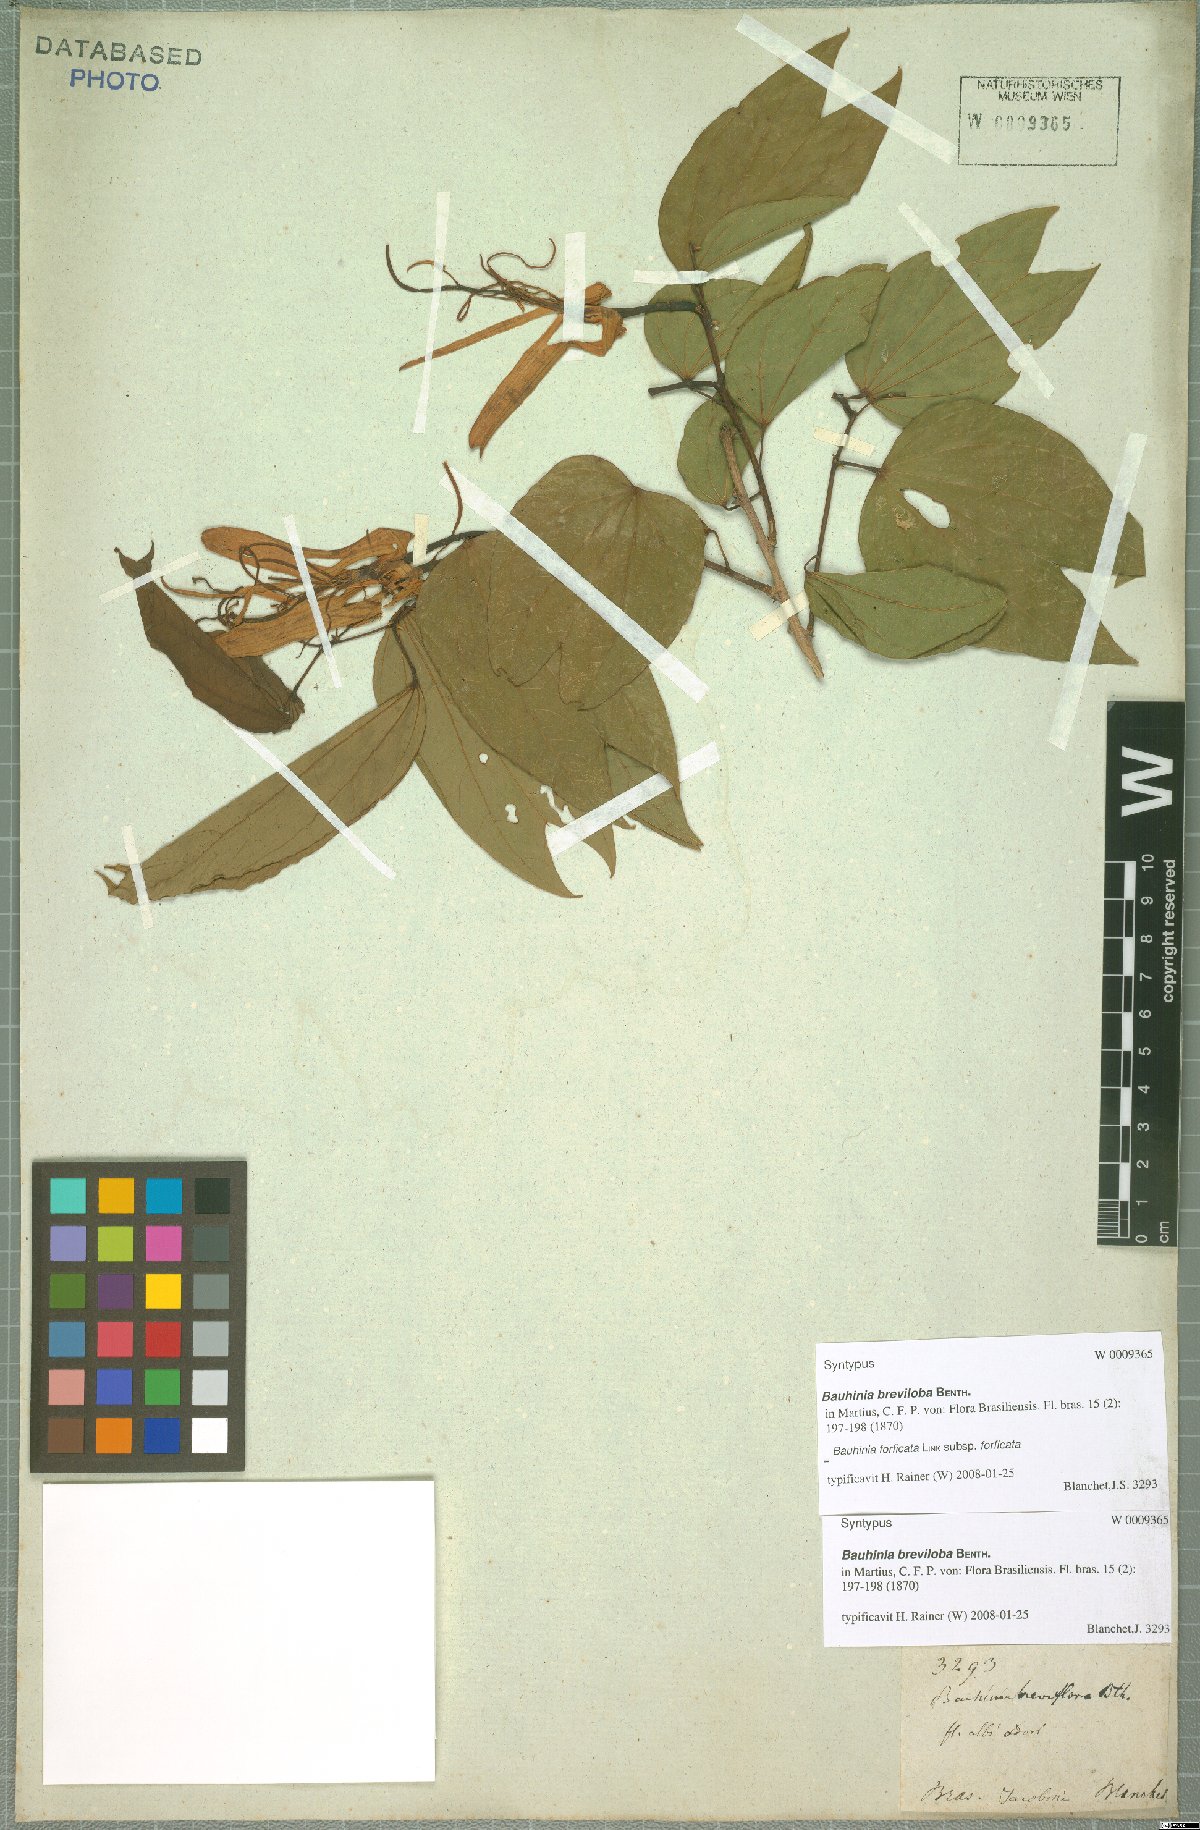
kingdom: Plantae
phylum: Tracheophyta
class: Magnoliopsida
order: Fabales
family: Fabaceae
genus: Bauhinia
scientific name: Bauhinia forficata
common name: Orchid tree
